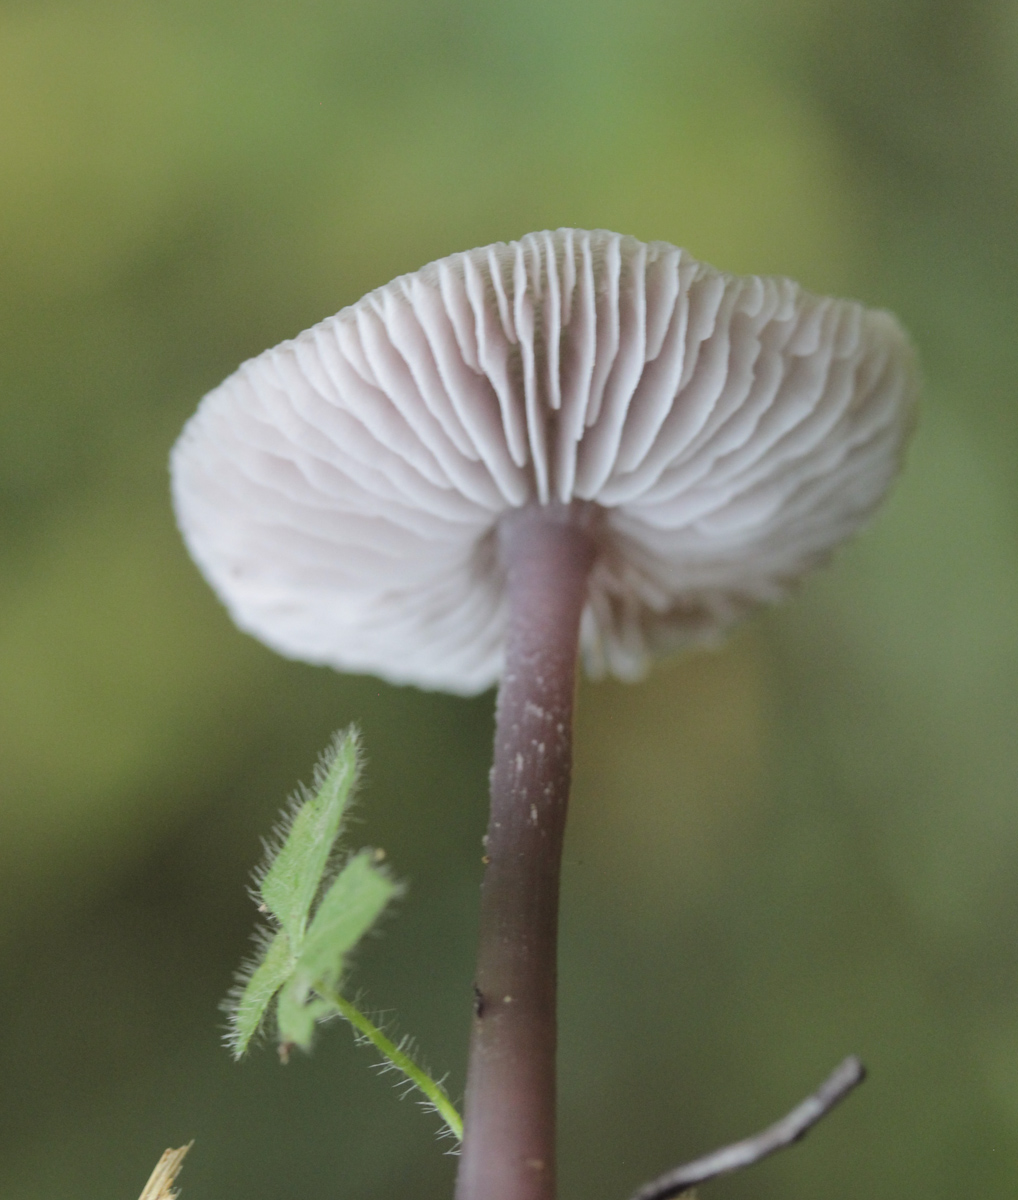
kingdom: Fungi
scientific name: Fungi
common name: Fungi
